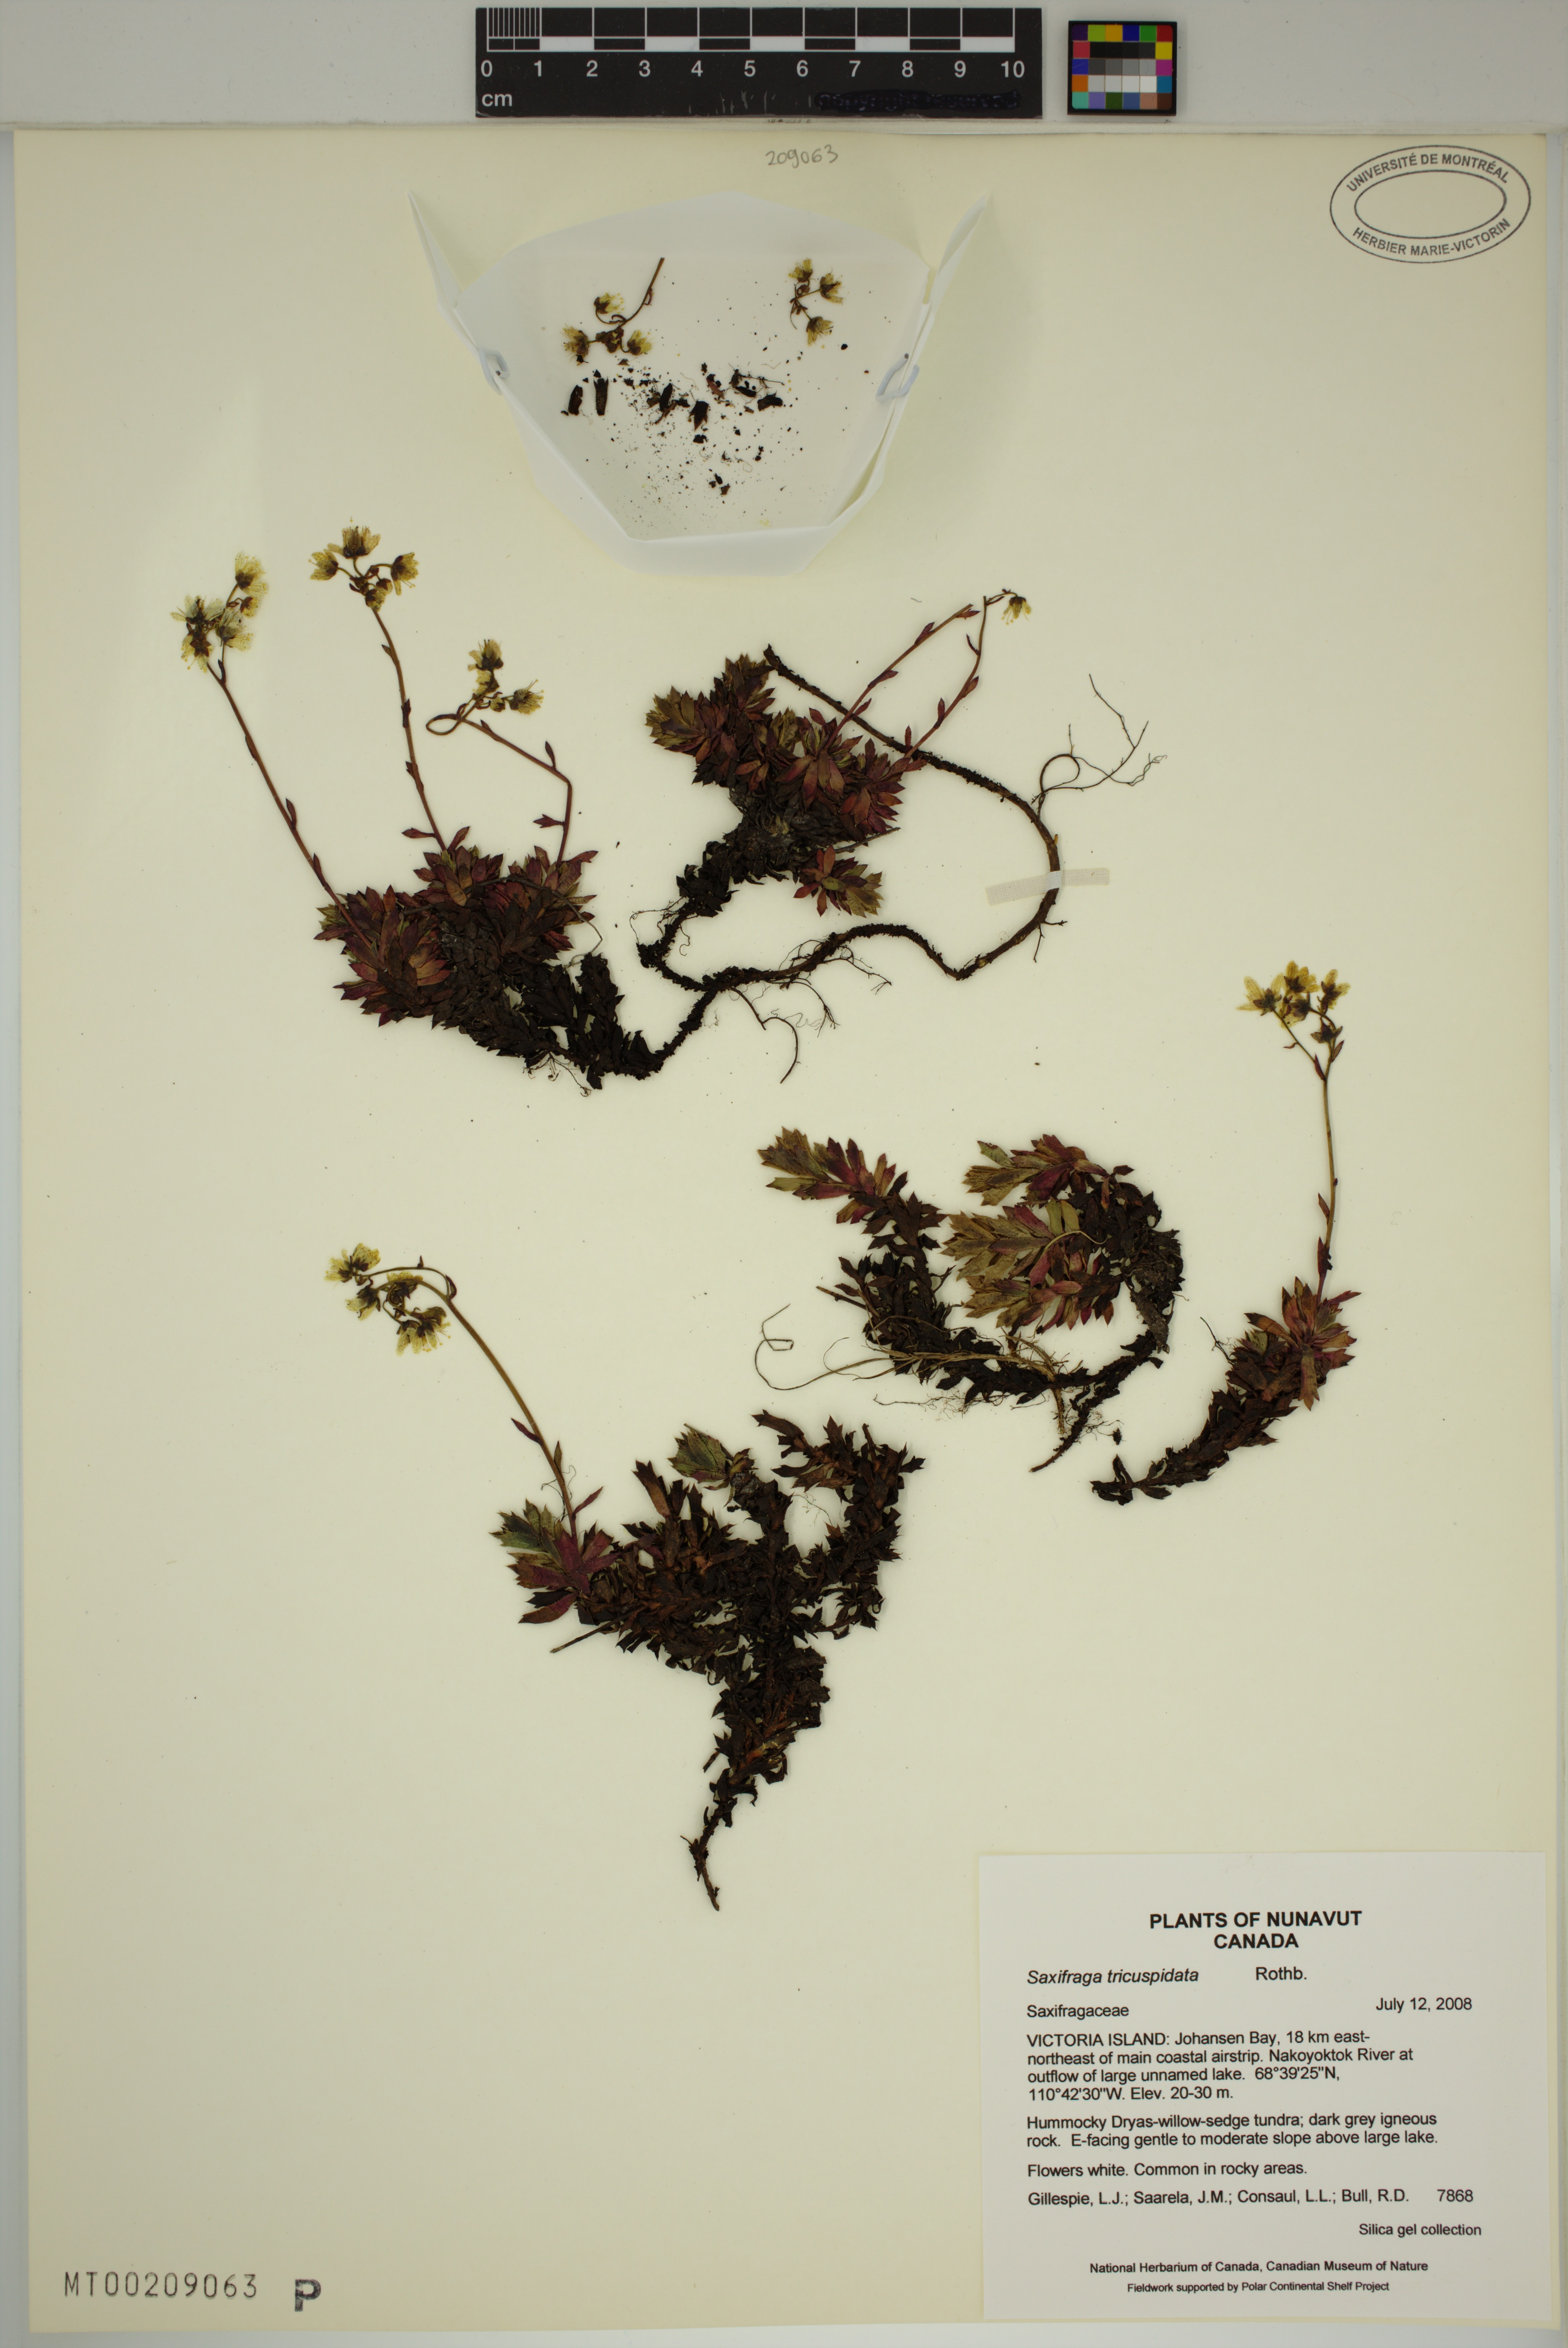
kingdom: Plantae
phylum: Tracheophyta
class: Magnoliopsida
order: Saxifragales
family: Saxifragaceae
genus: Saxifraga
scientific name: Saxifraga tricuspidata
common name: Prickly saxifrage
